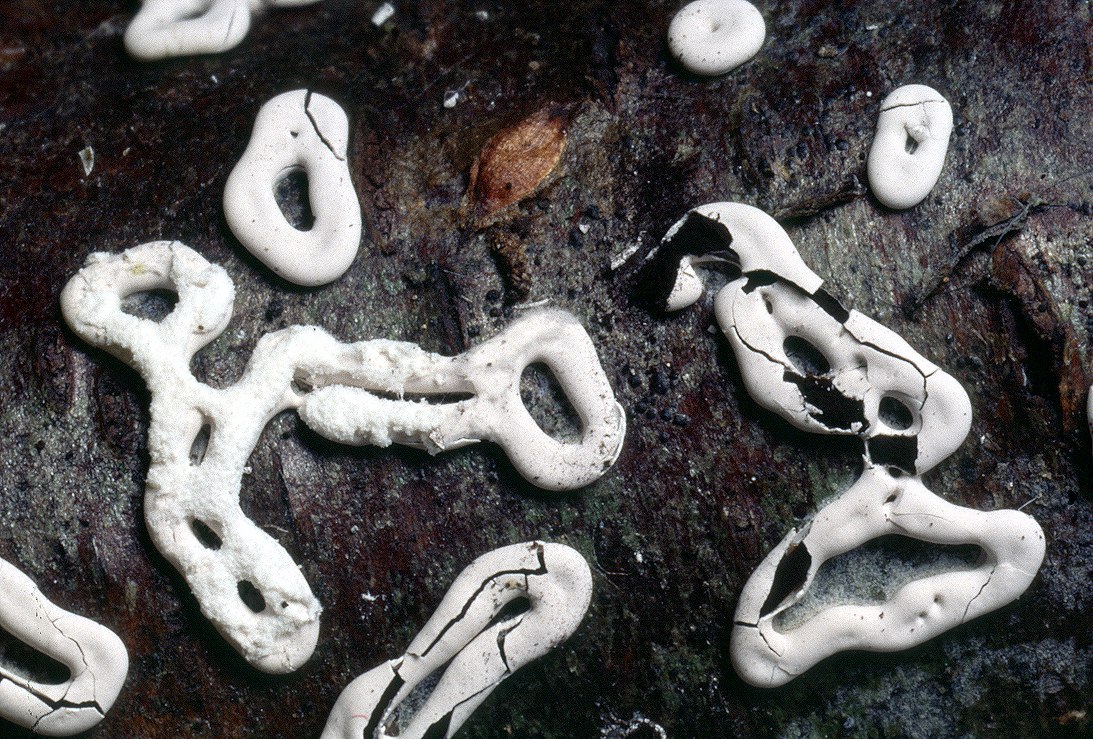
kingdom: Protozoa
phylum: Mycetozoa
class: Myxomycetes
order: Physarales
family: Didymiaceae
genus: Diderma
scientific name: Diderma deplanatum
